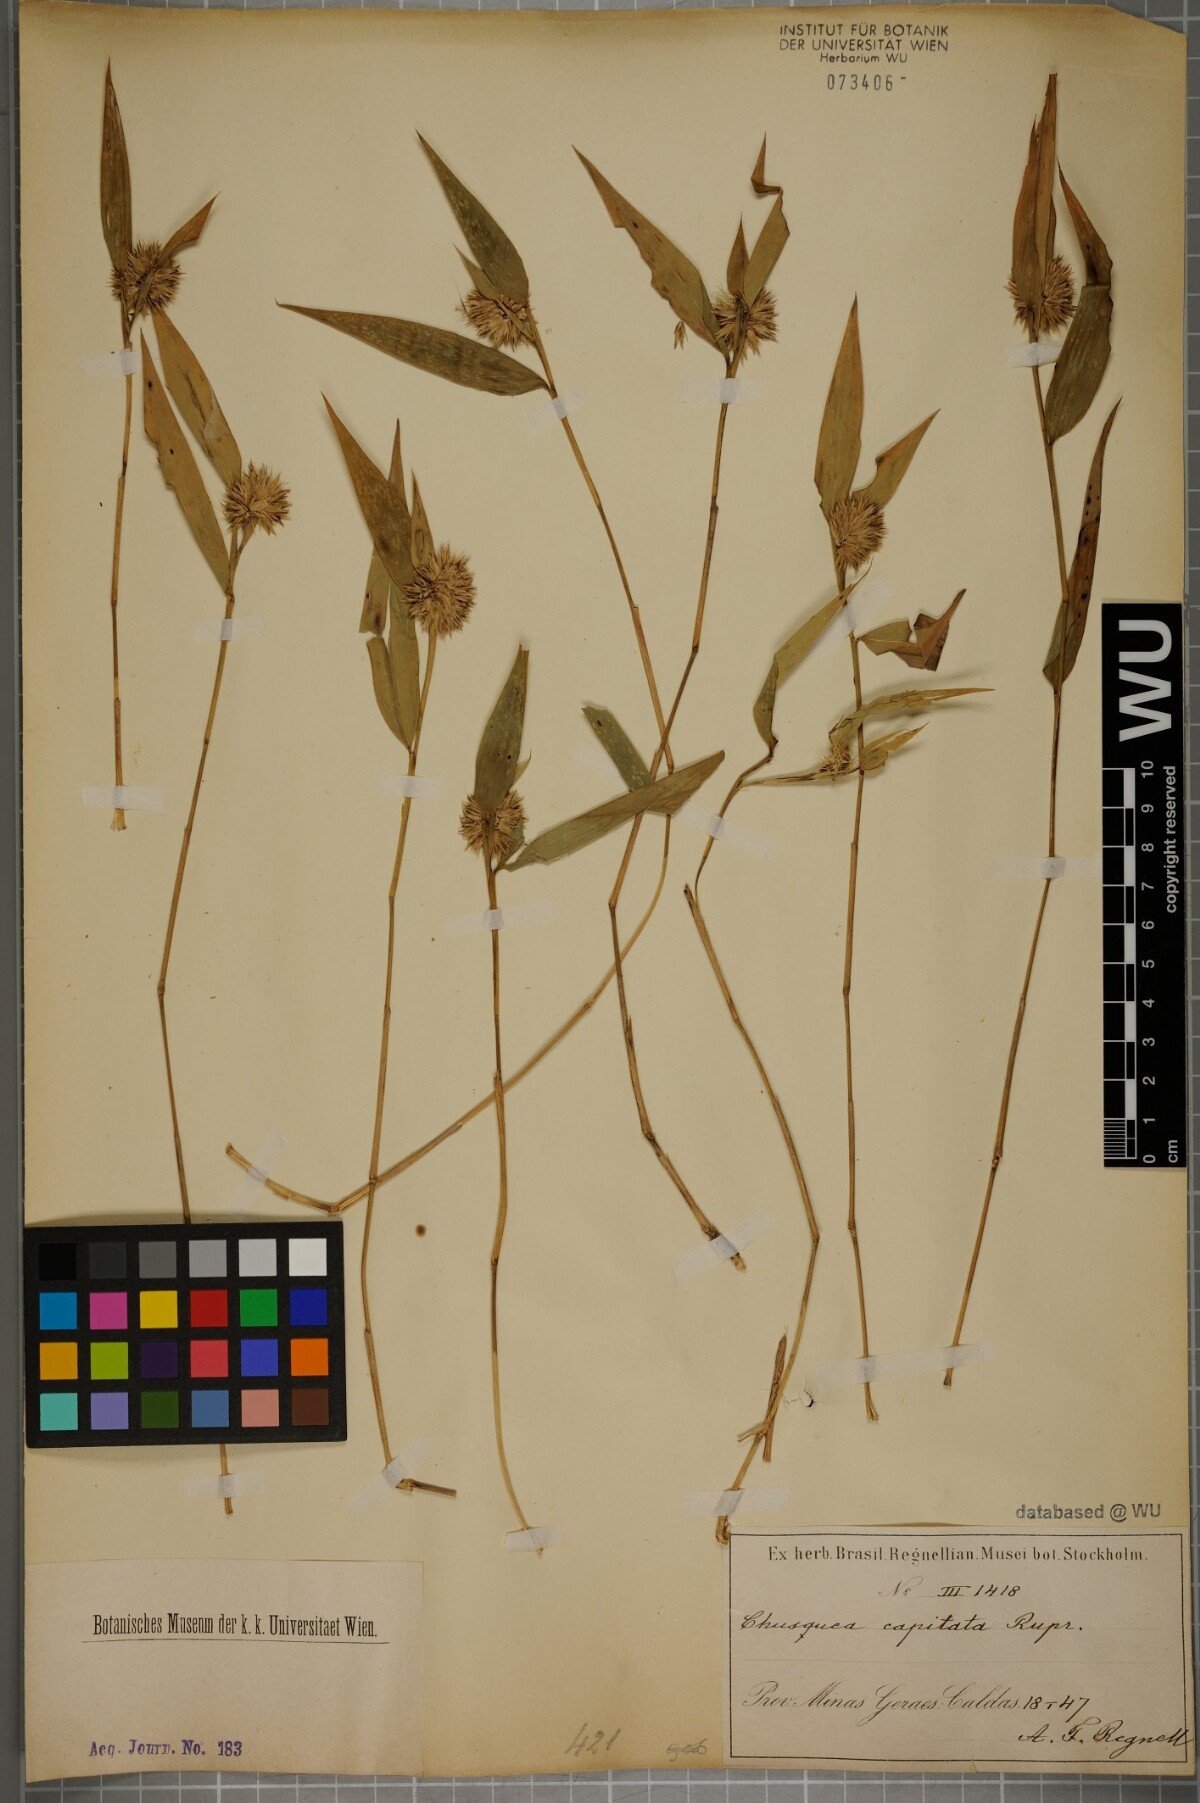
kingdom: Plantae
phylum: Tracheophyta
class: Liliopsida
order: Poales
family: Poaceae
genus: Chusquea
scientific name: Chusquea capitata
